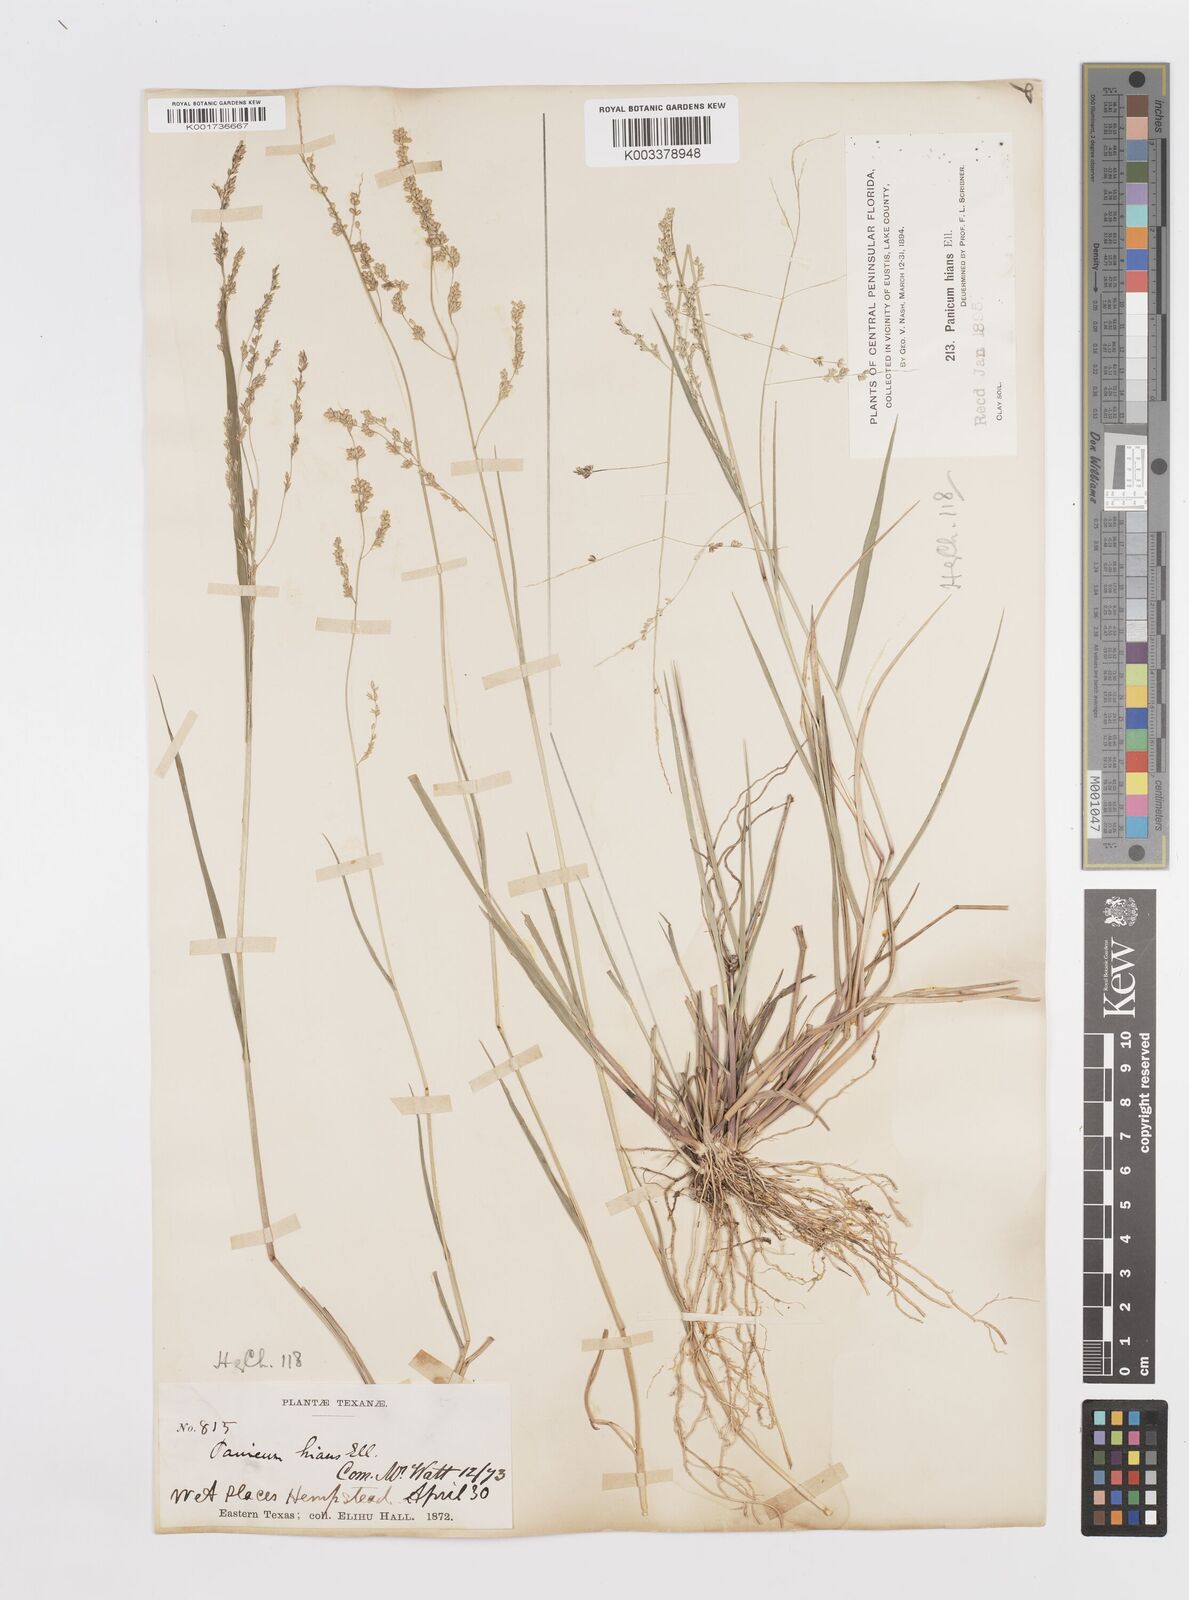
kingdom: Plantae
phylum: Tracheophyta
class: Liliopsida
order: Poales
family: Poaceae
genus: Steinchisma
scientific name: Steinchisma hians
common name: Gaping panic grass
